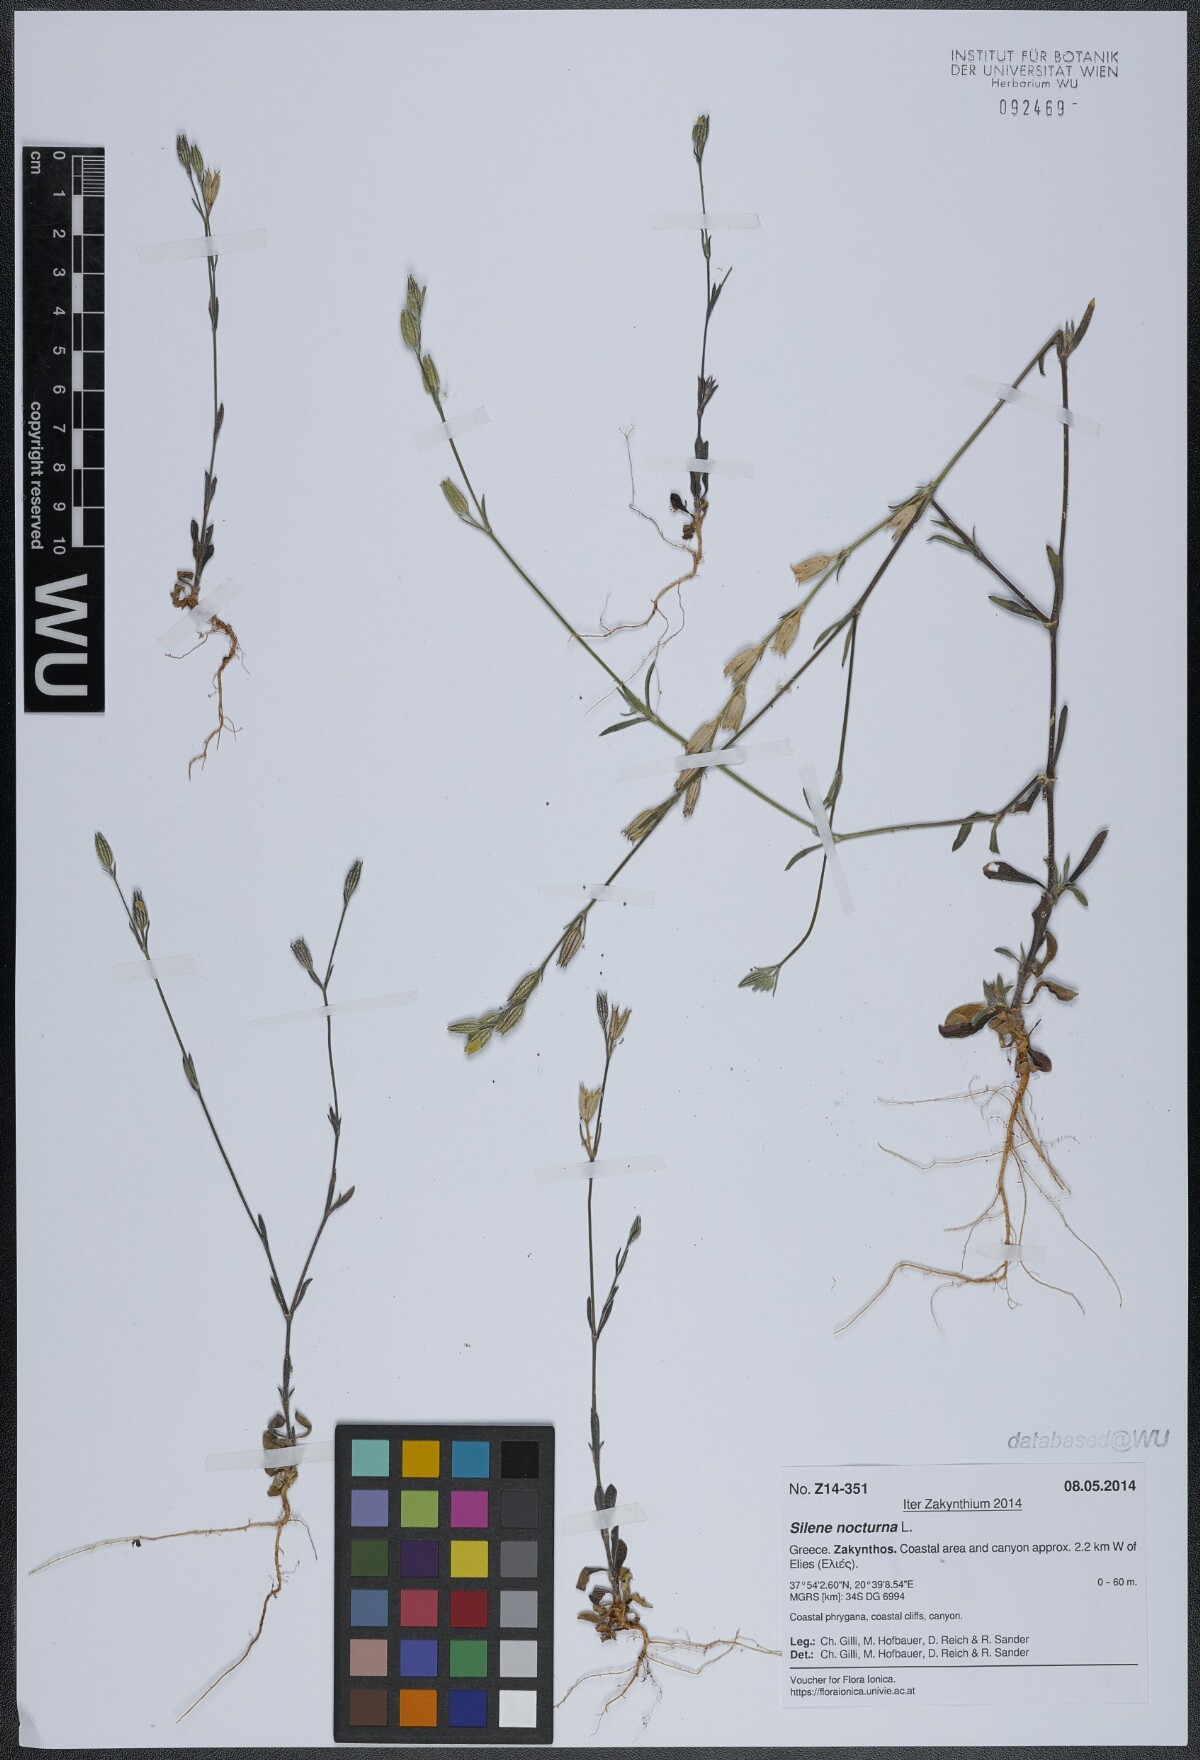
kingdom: Plantae
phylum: Tracheophyta
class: Magnoliopsida
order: Caryophyllales
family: Caryophyllaceae
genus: Silene
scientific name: Silene nocturna
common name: Mediterranean catchfly
